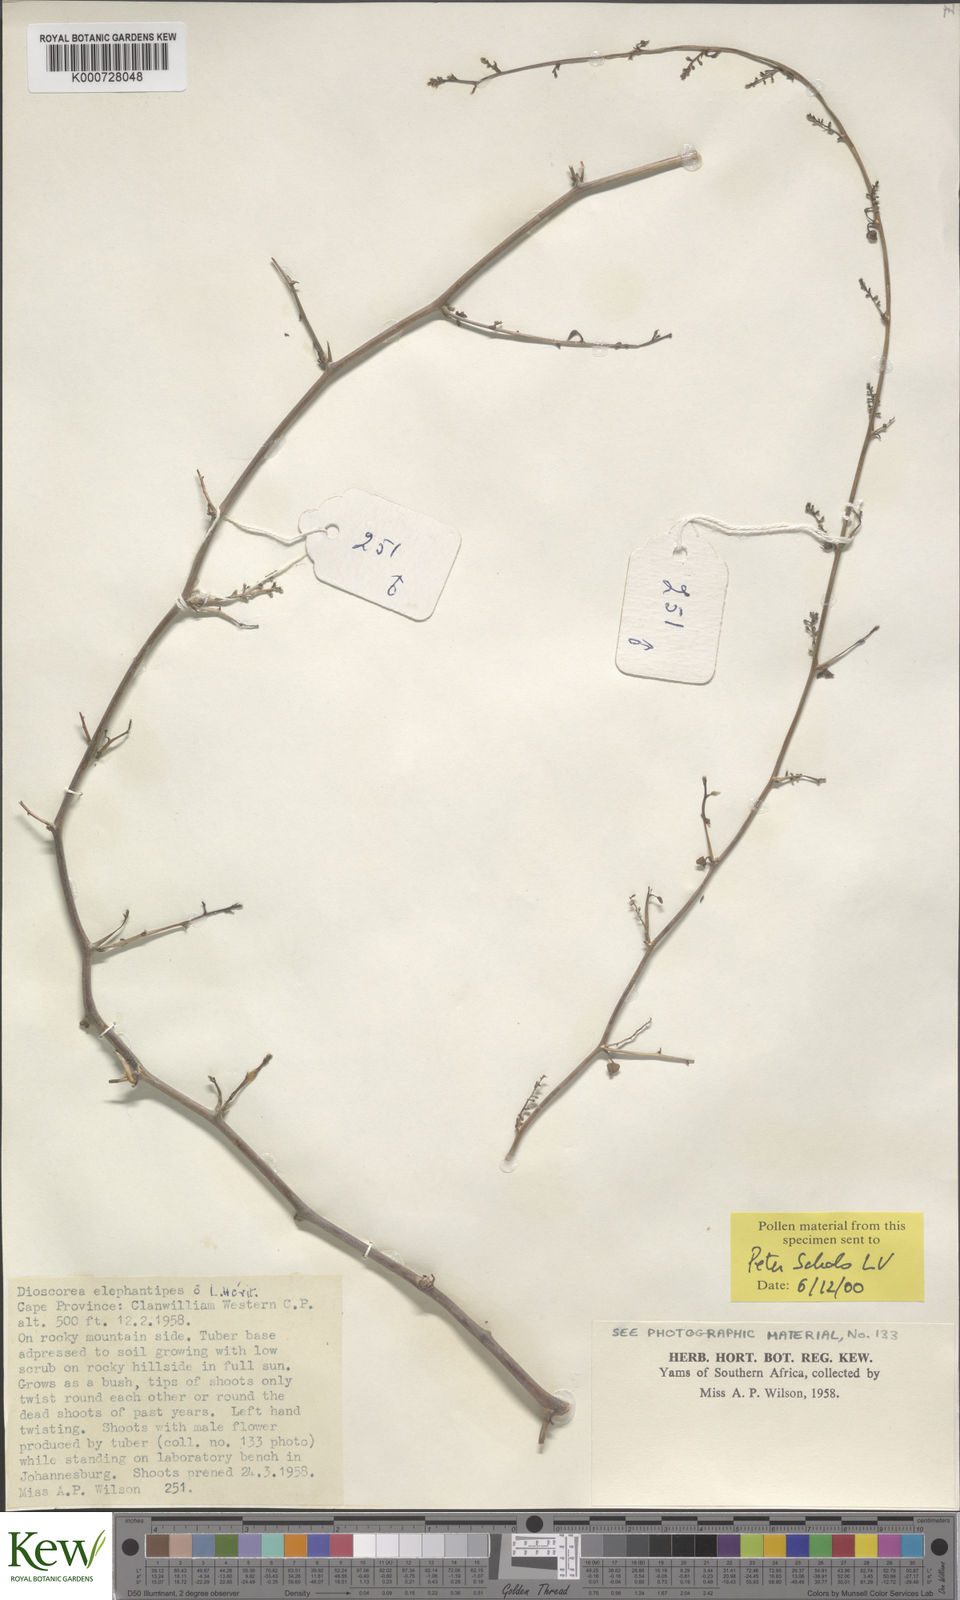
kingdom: Plantae
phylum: Tracheophyta
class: Liliopsida
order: Dioscoreales
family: Dioscoreaceae
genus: Dioscorea
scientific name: Dioscorea
